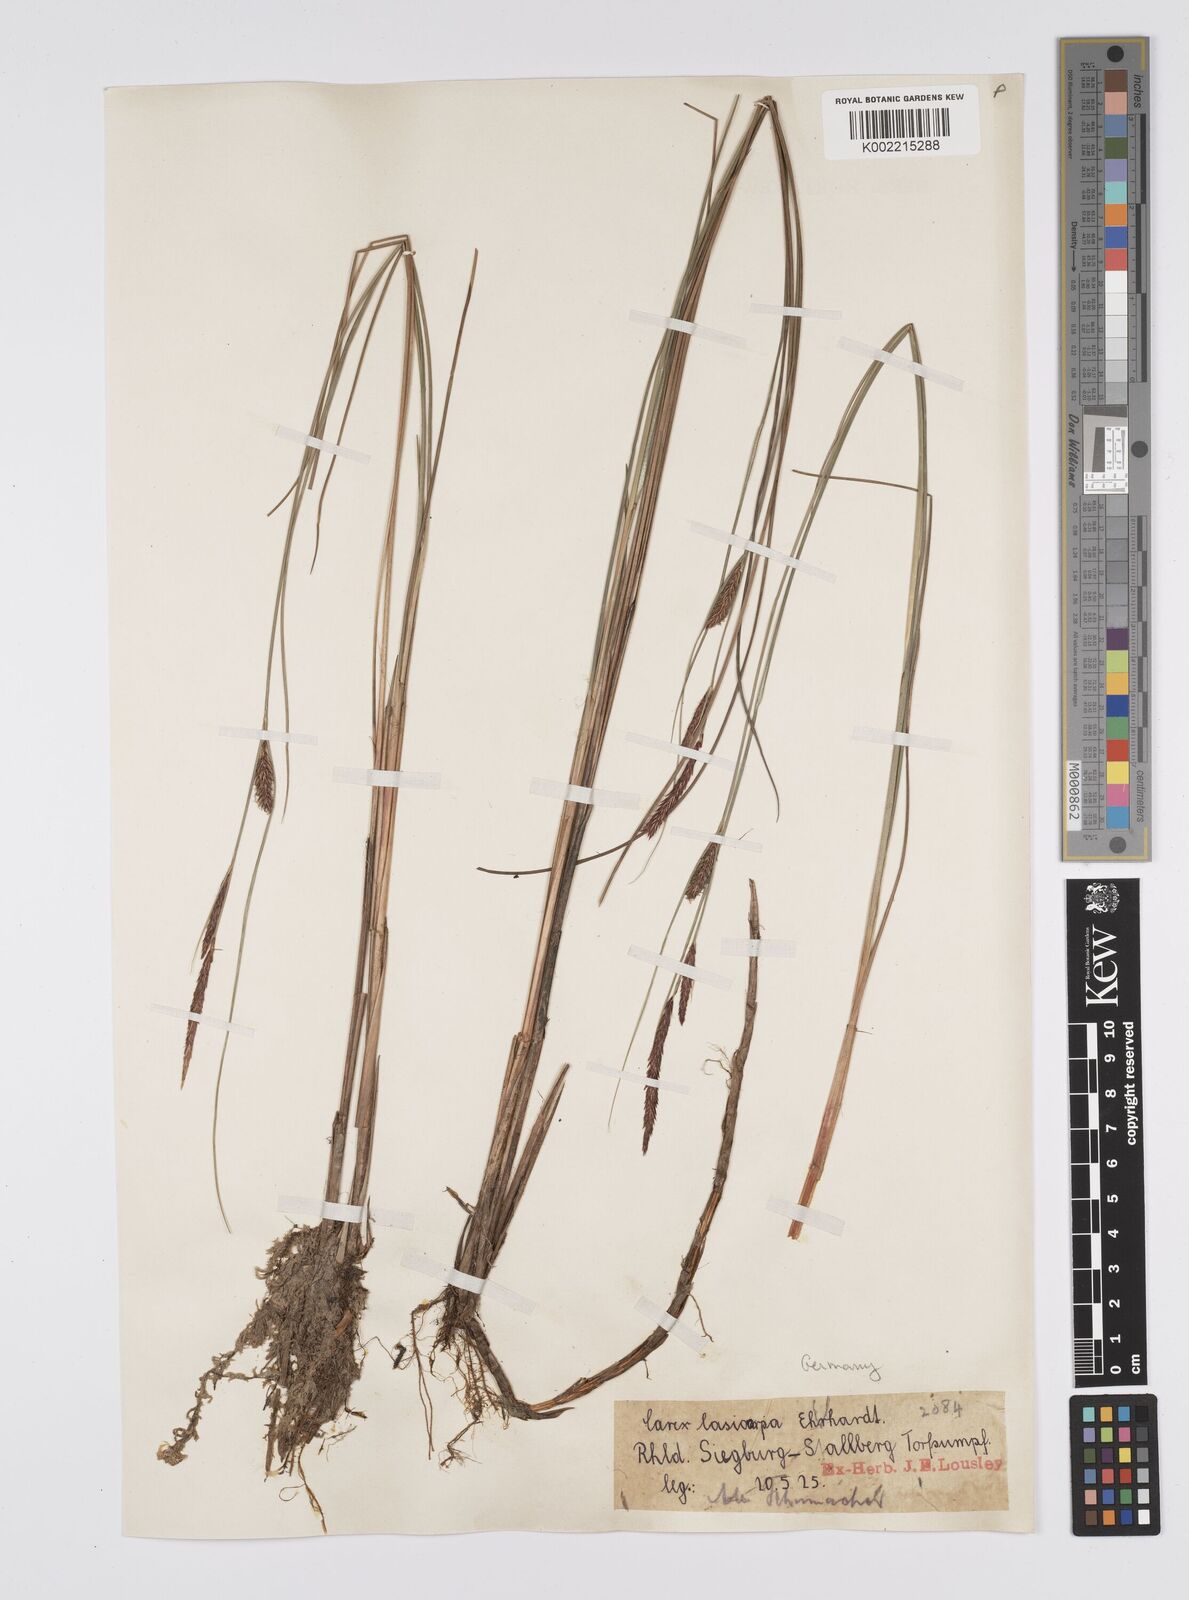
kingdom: Plantae
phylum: Tracheophyta
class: Liliopsida
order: Poales
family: Cyperaceae
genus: Carex
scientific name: Carex lasiocarpa
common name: Slender sedge
